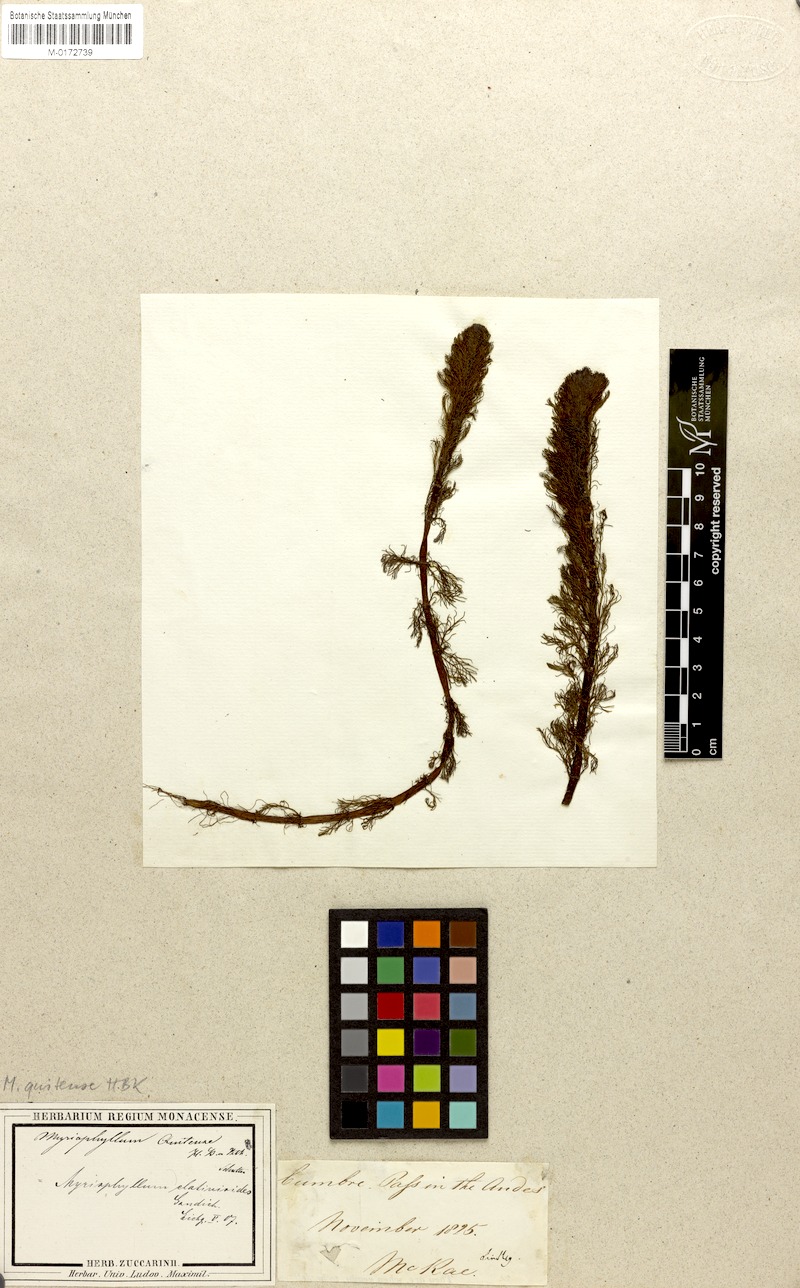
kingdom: Plantae
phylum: Tracheophyta
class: Magnoliopsida
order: Saxifragales
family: Haloragaceae
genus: Myriophyllum
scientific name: Myriophyllum quitense
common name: Andean water milfoil
